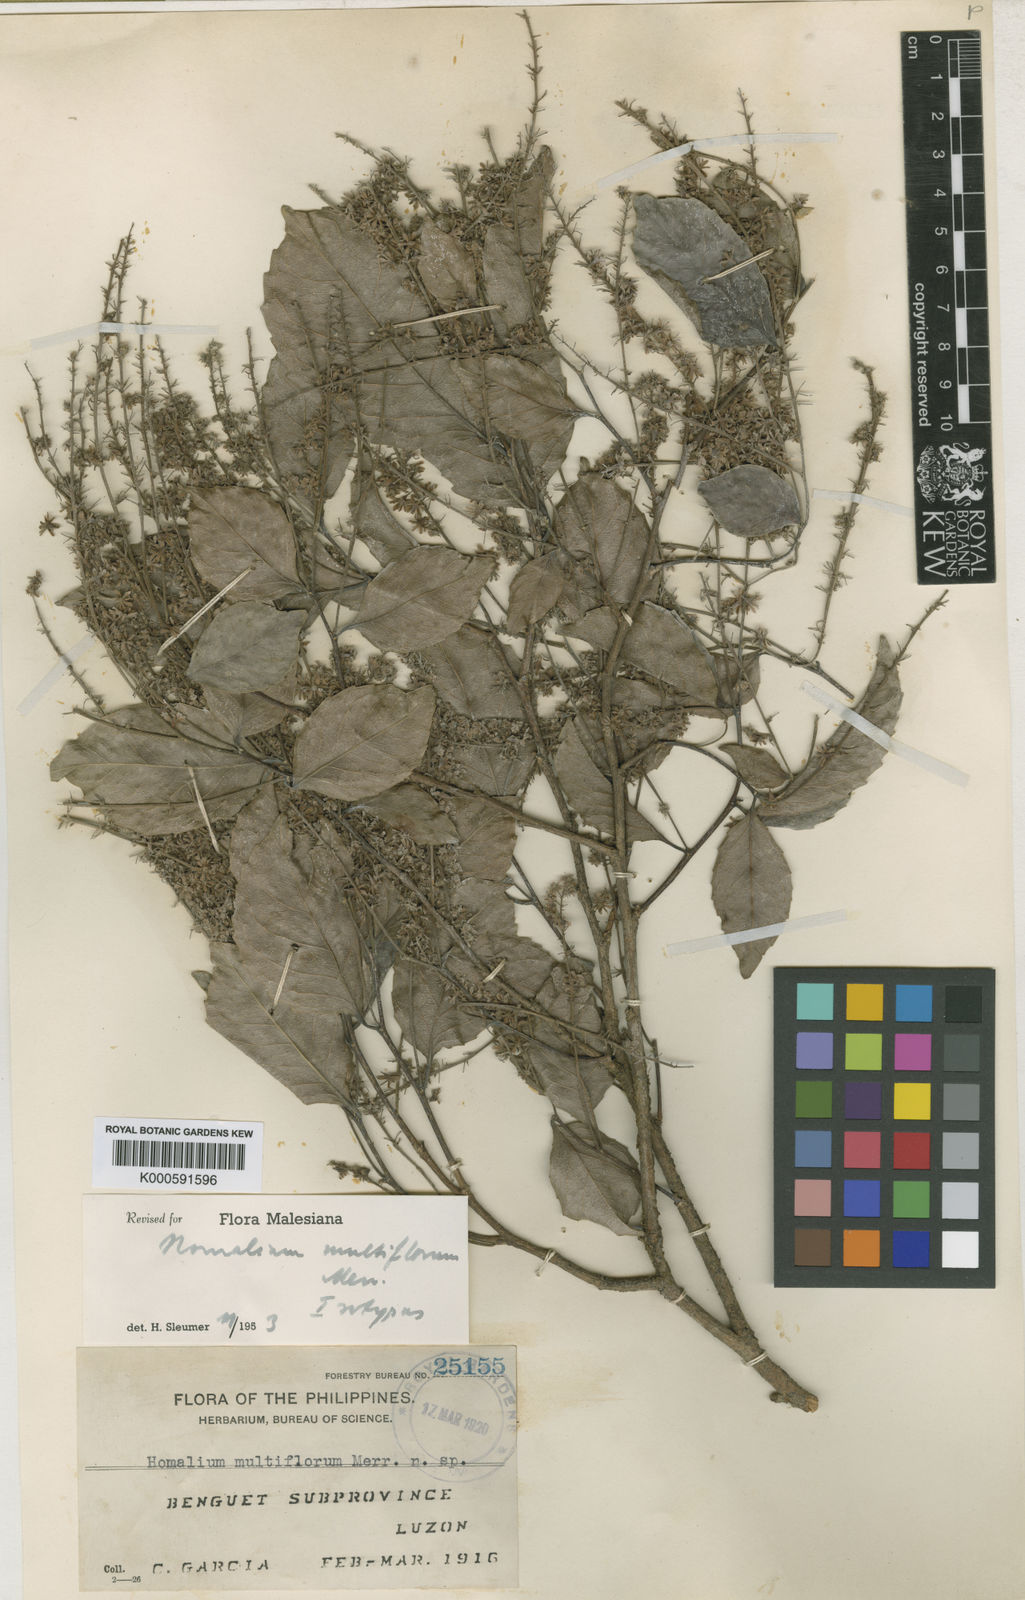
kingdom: Plantae
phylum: Tracheophyta
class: Magnoliopsida
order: Malpighiales
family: Salicaceae
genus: Homalium
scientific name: Homalium multiflorum
